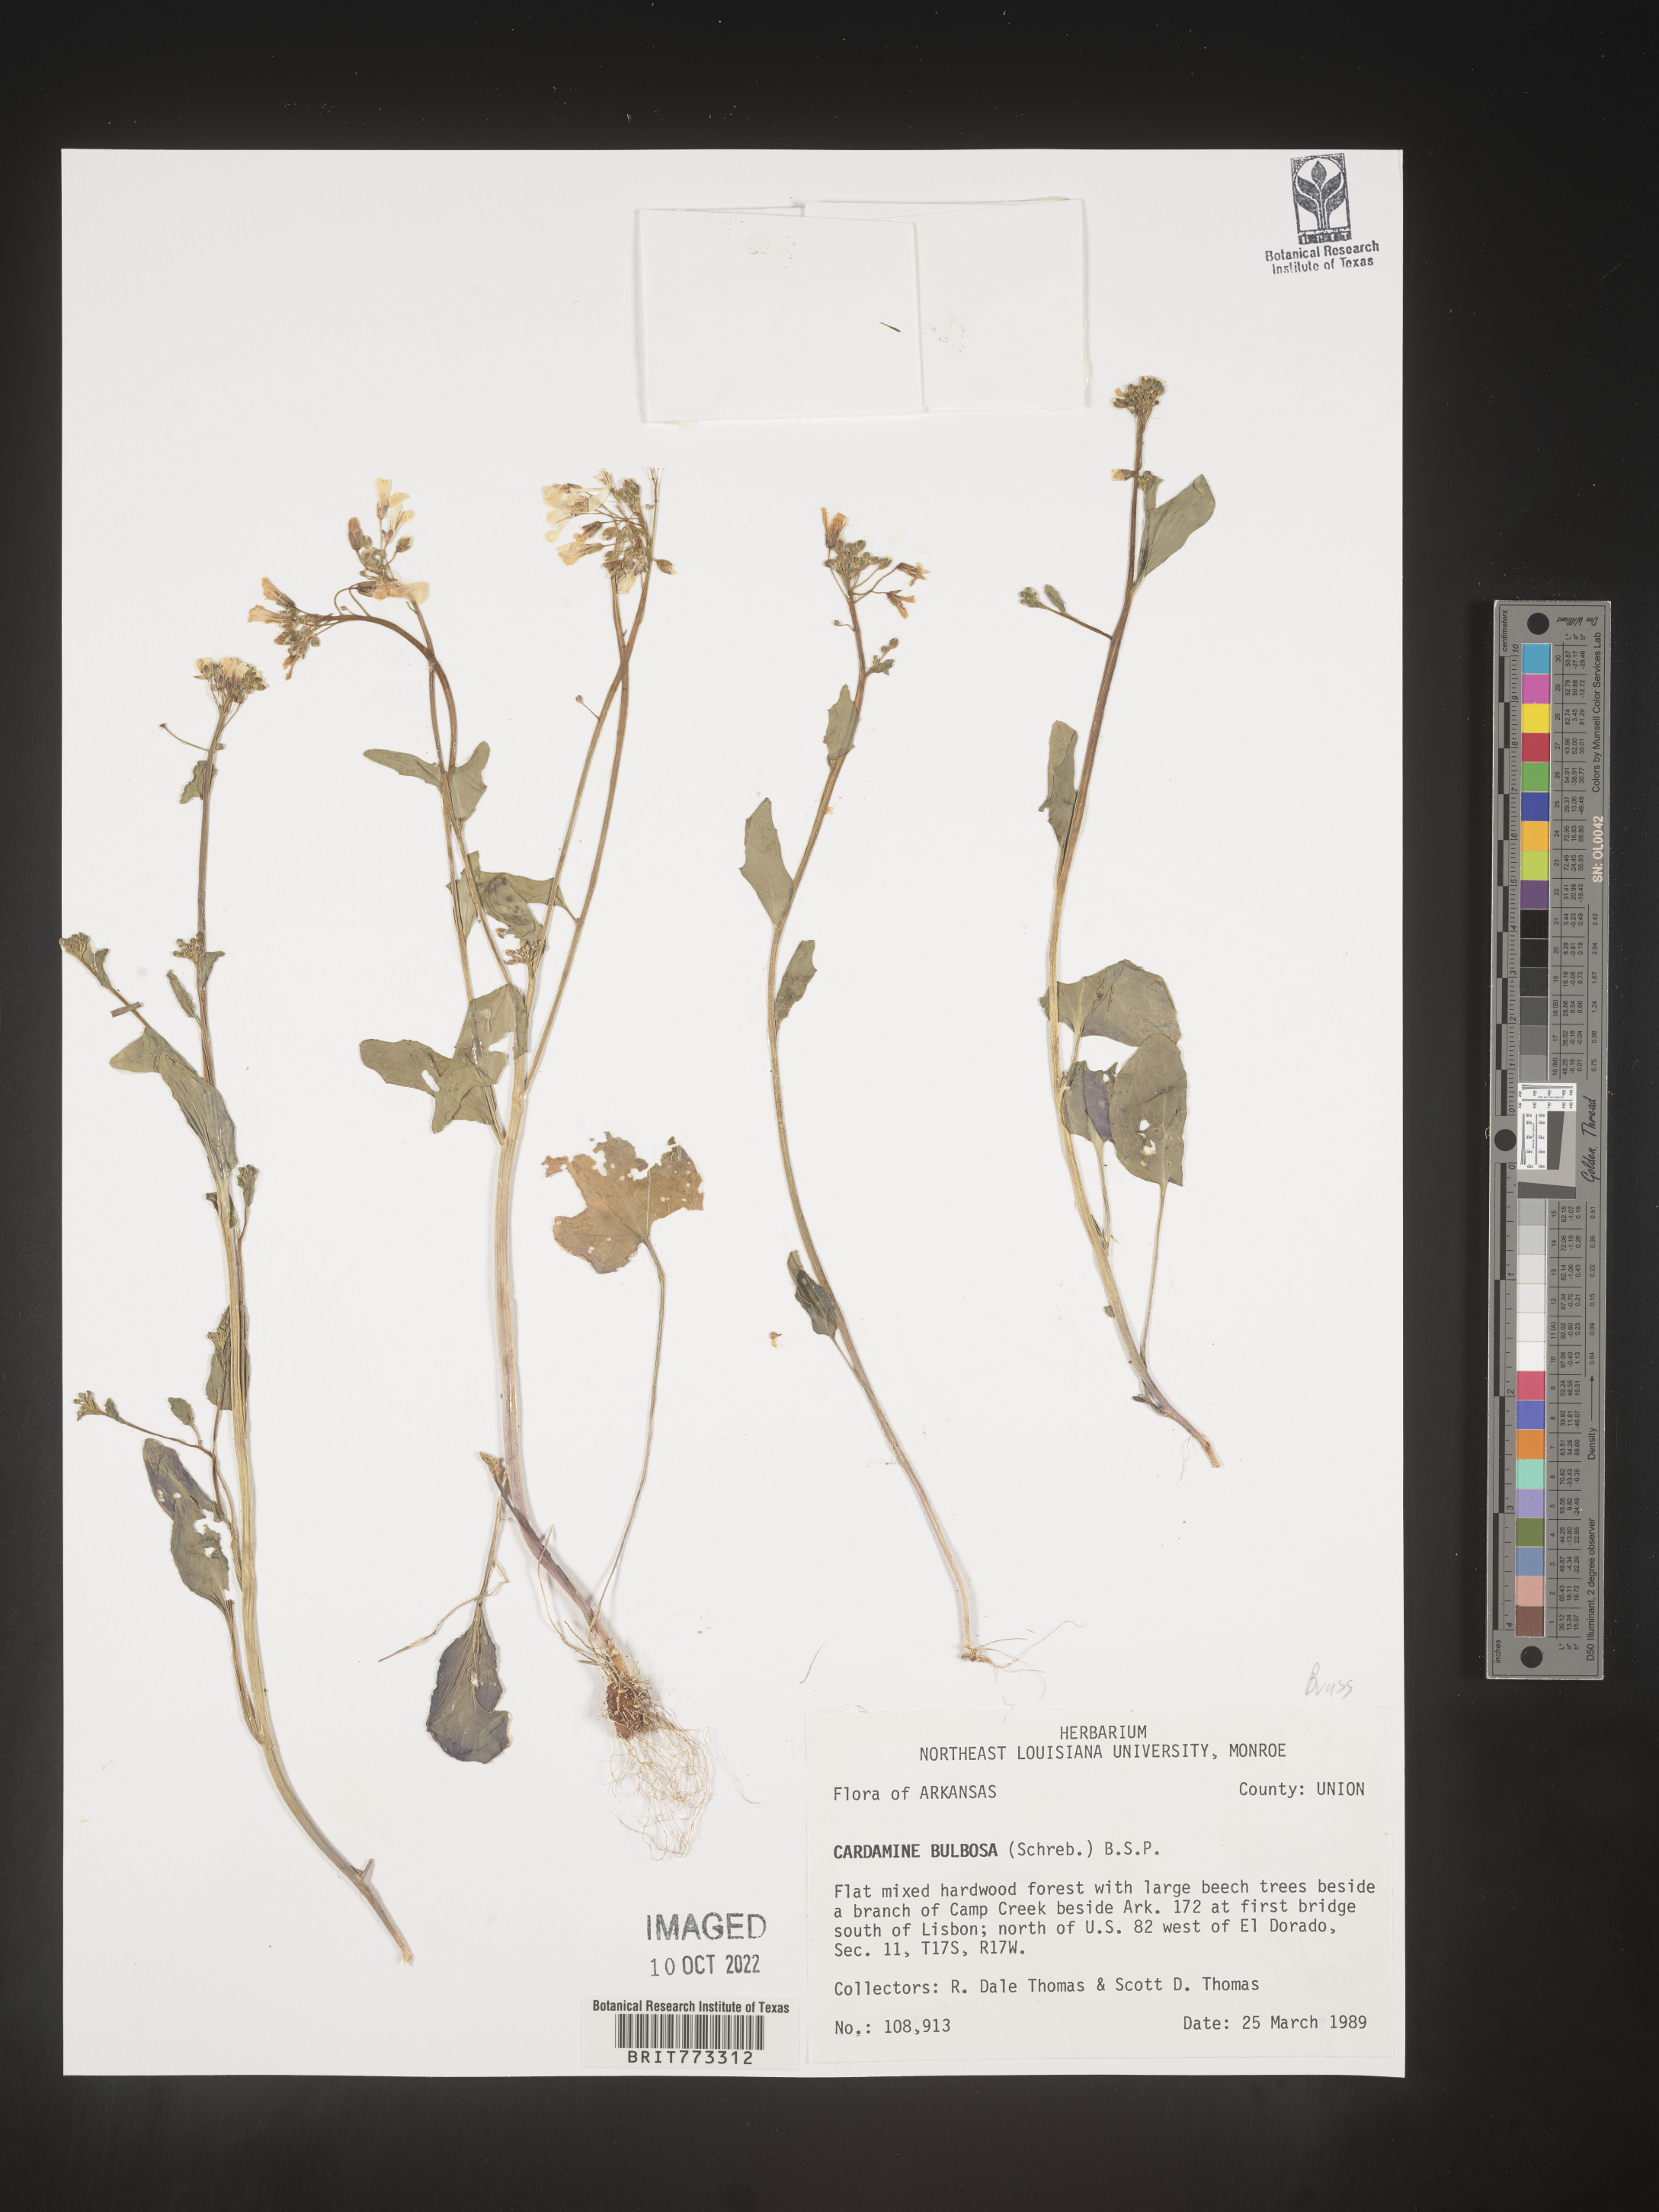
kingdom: Plantae
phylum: Tracheophyta
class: Magnoliopsida
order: Brassicales
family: Brassicaceae
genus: Cardamine
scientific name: Cardamine bulbosa
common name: Spring cress
